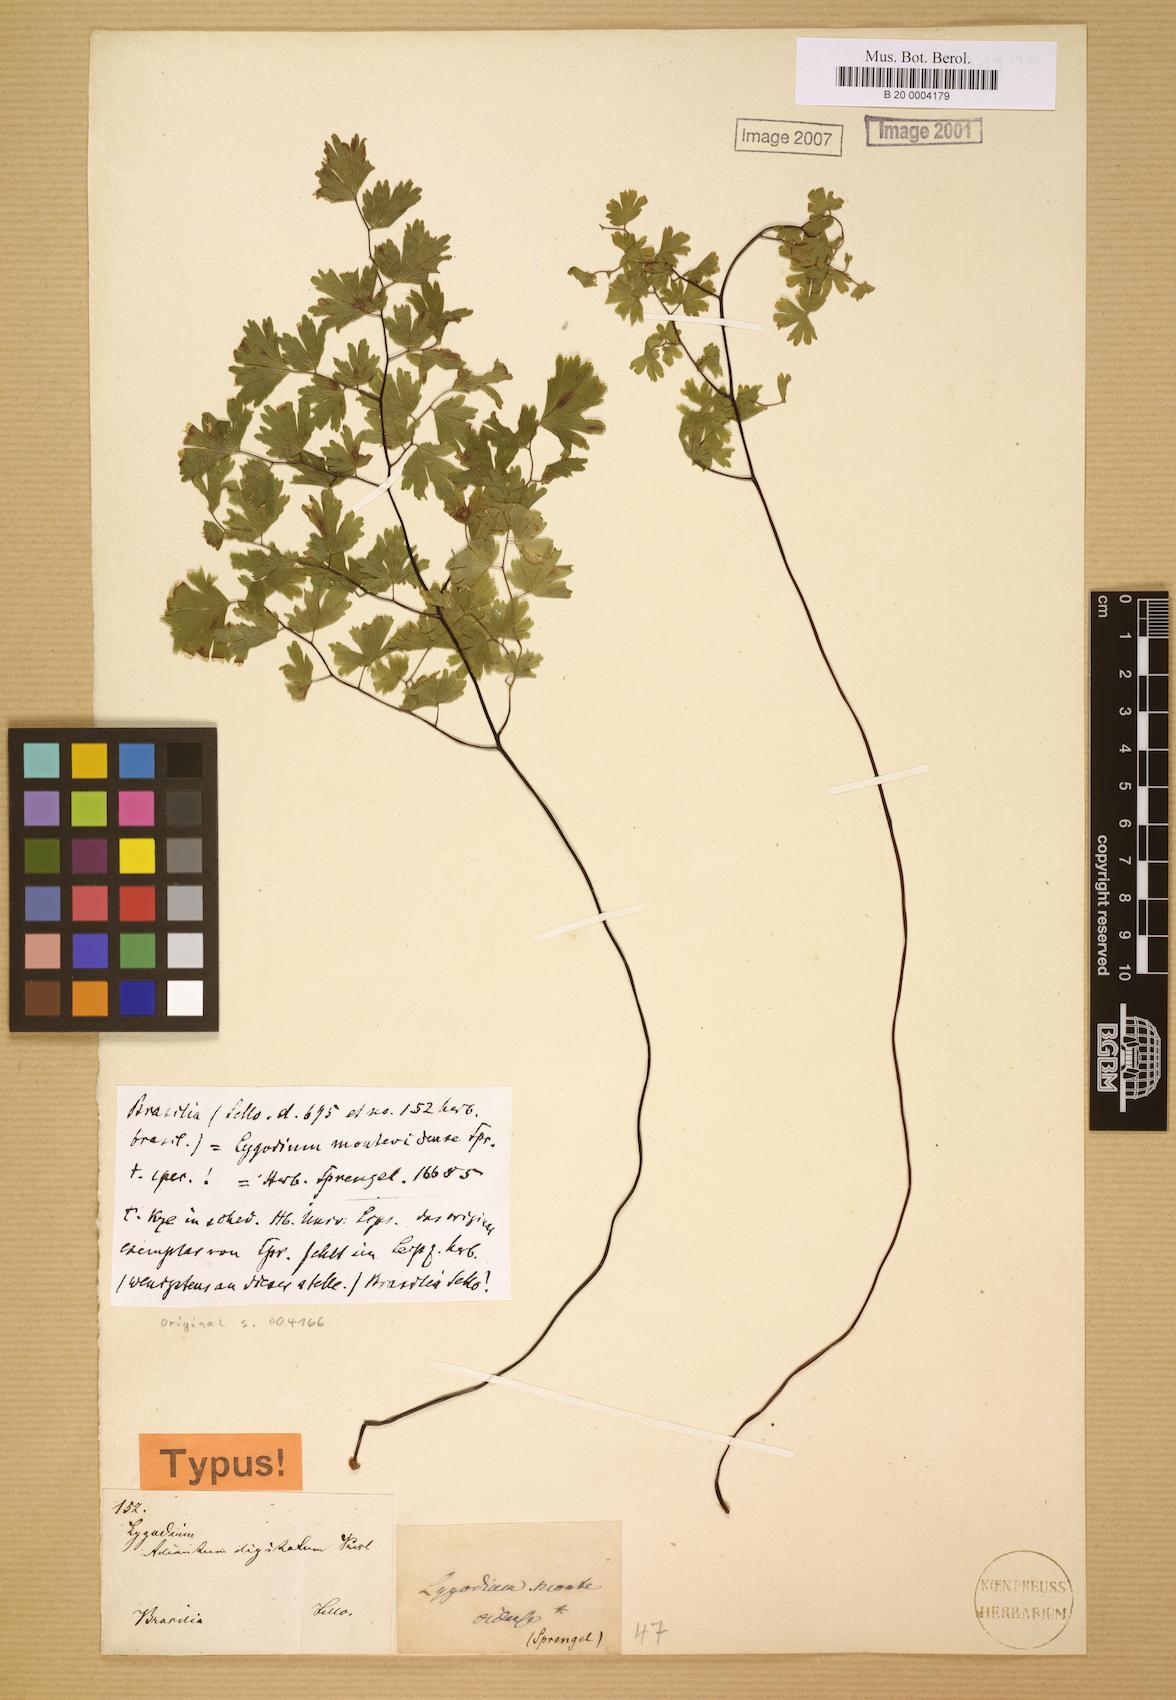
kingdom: Plantae
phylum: Tracheophyta
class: Polypodiopsida
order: Polypodiales
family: Pteridaceae
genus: Adiantum
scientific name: Adiantum digitatum
